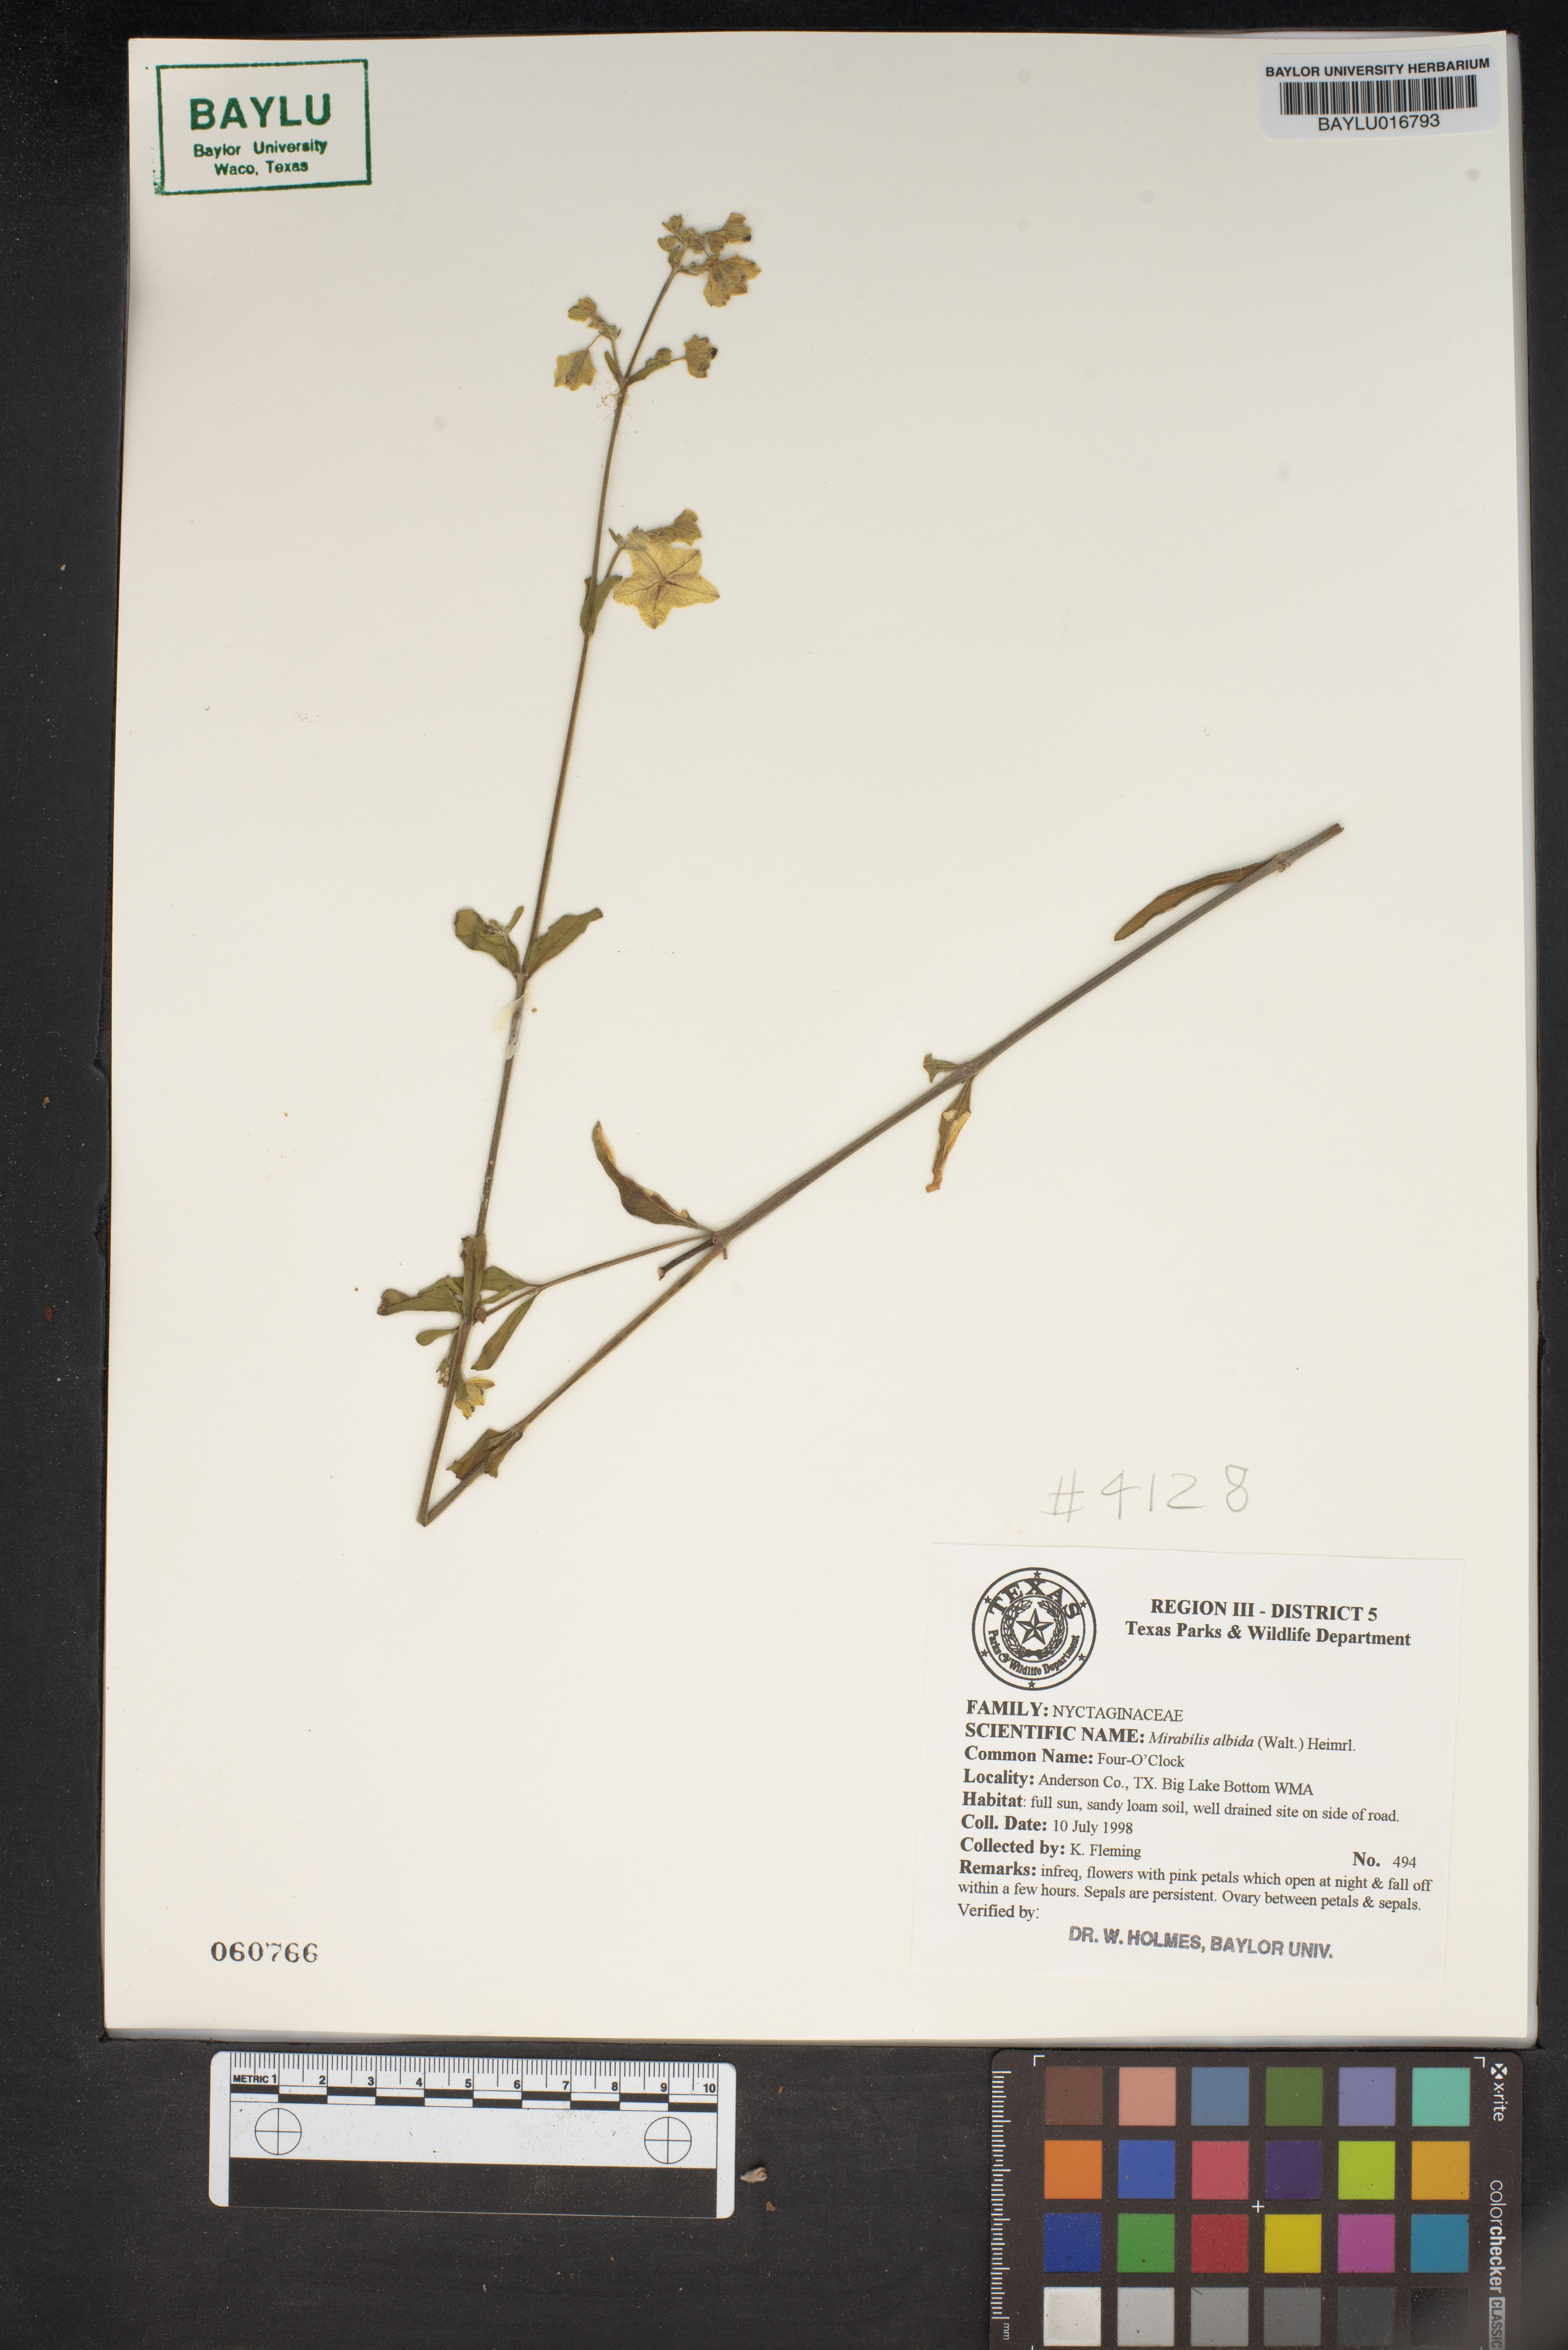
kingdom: Plantae
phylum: Tracheophyta
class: Magnoliopsida
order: Caryophyllales
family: Nyctaginaceae
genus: Mirabilis
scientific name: Mirabilis albida
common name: Hairy four-o'clock
